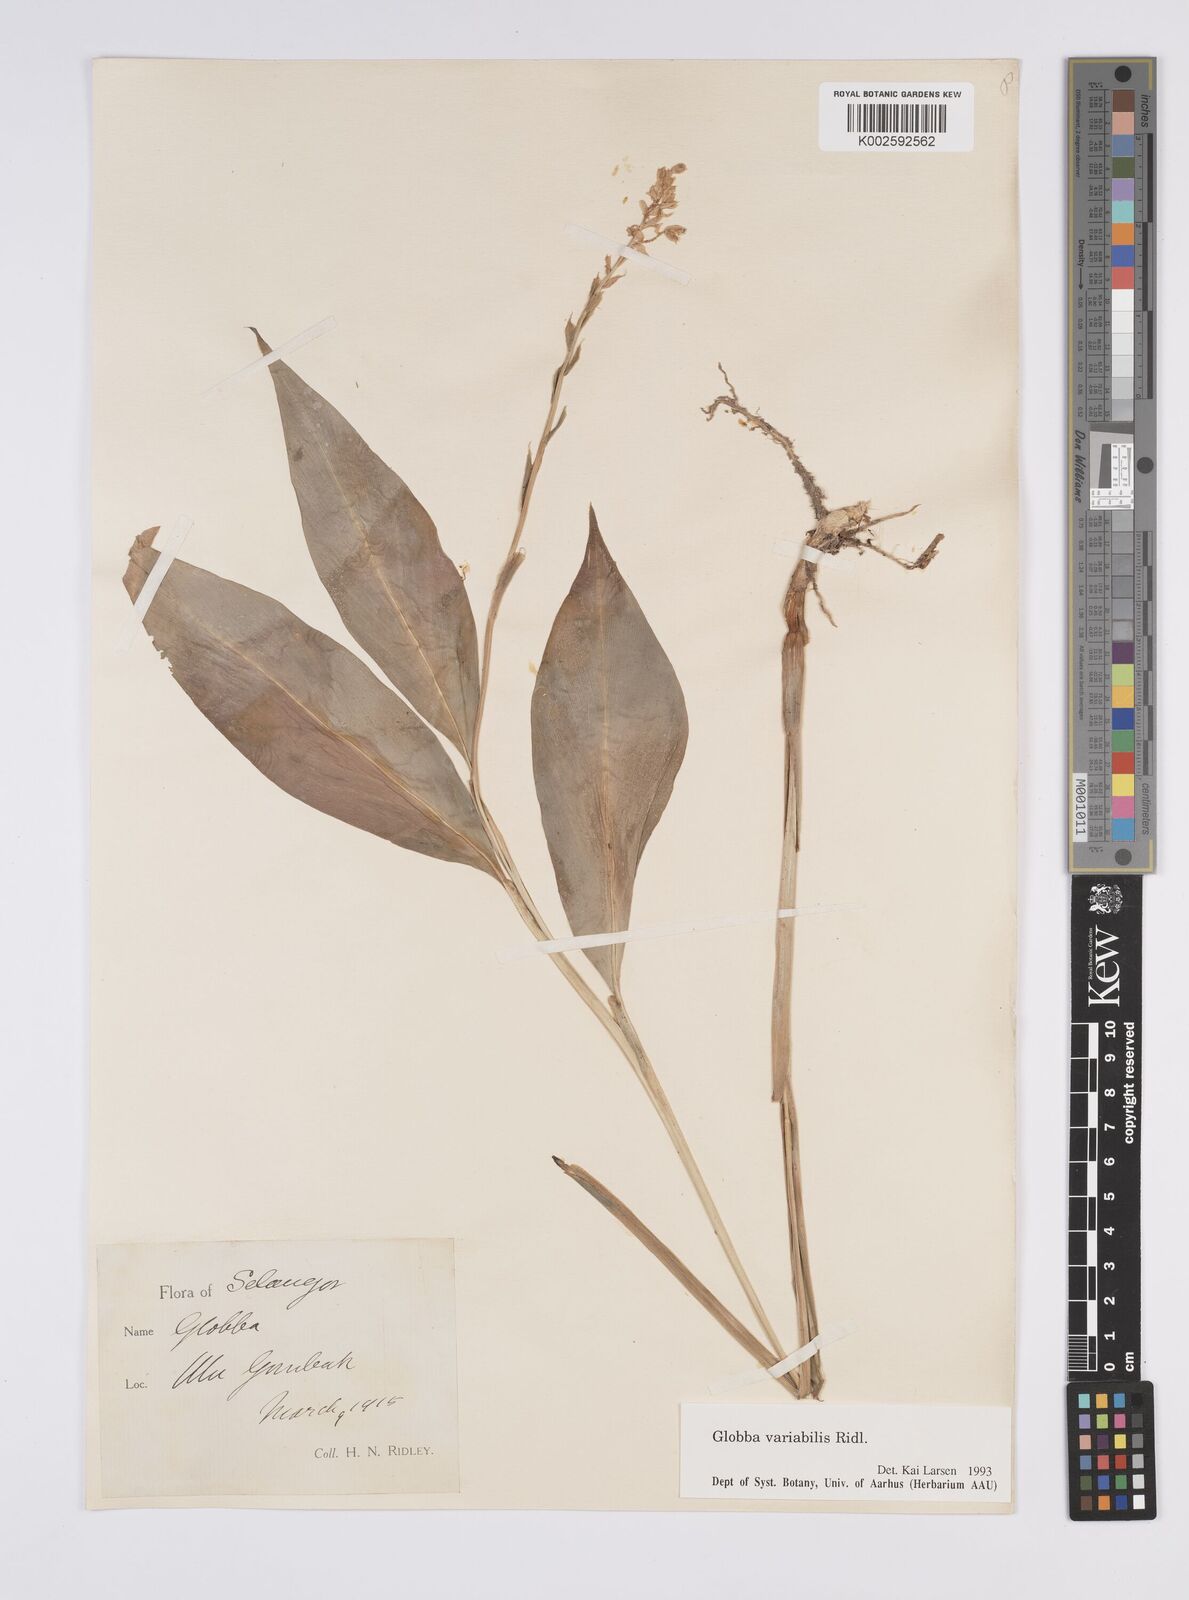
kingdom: Plantae
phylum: Tracheophyta
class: Liliopsida
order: Zingiberales
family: Zingiberaceae
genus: Globba
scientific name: Globba variabilis
